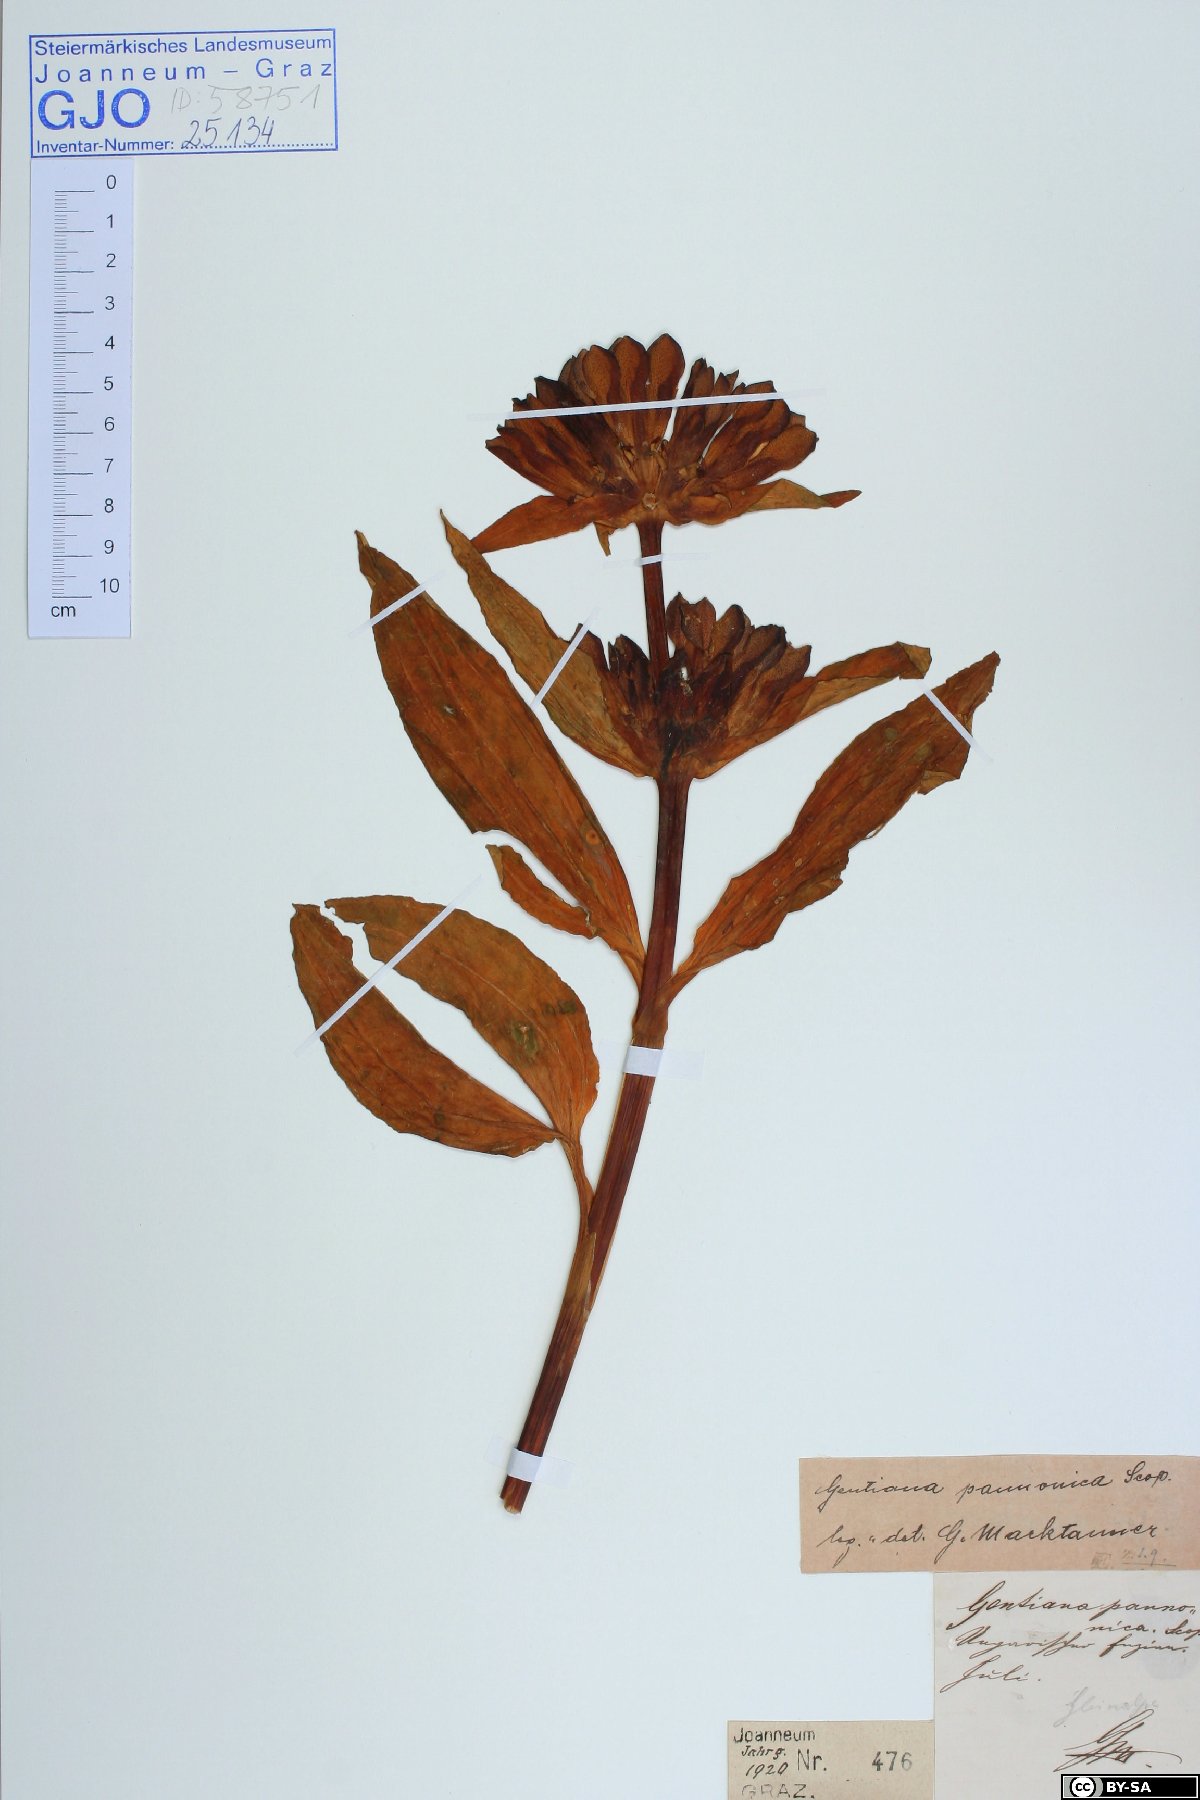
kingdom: Plantae
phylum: Tracheophyta
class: Magnoliopsida
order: Gentianales
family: Gentianaceae
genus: Gentiana
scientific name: Gentiana pannonica
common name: Hungarian gentian
